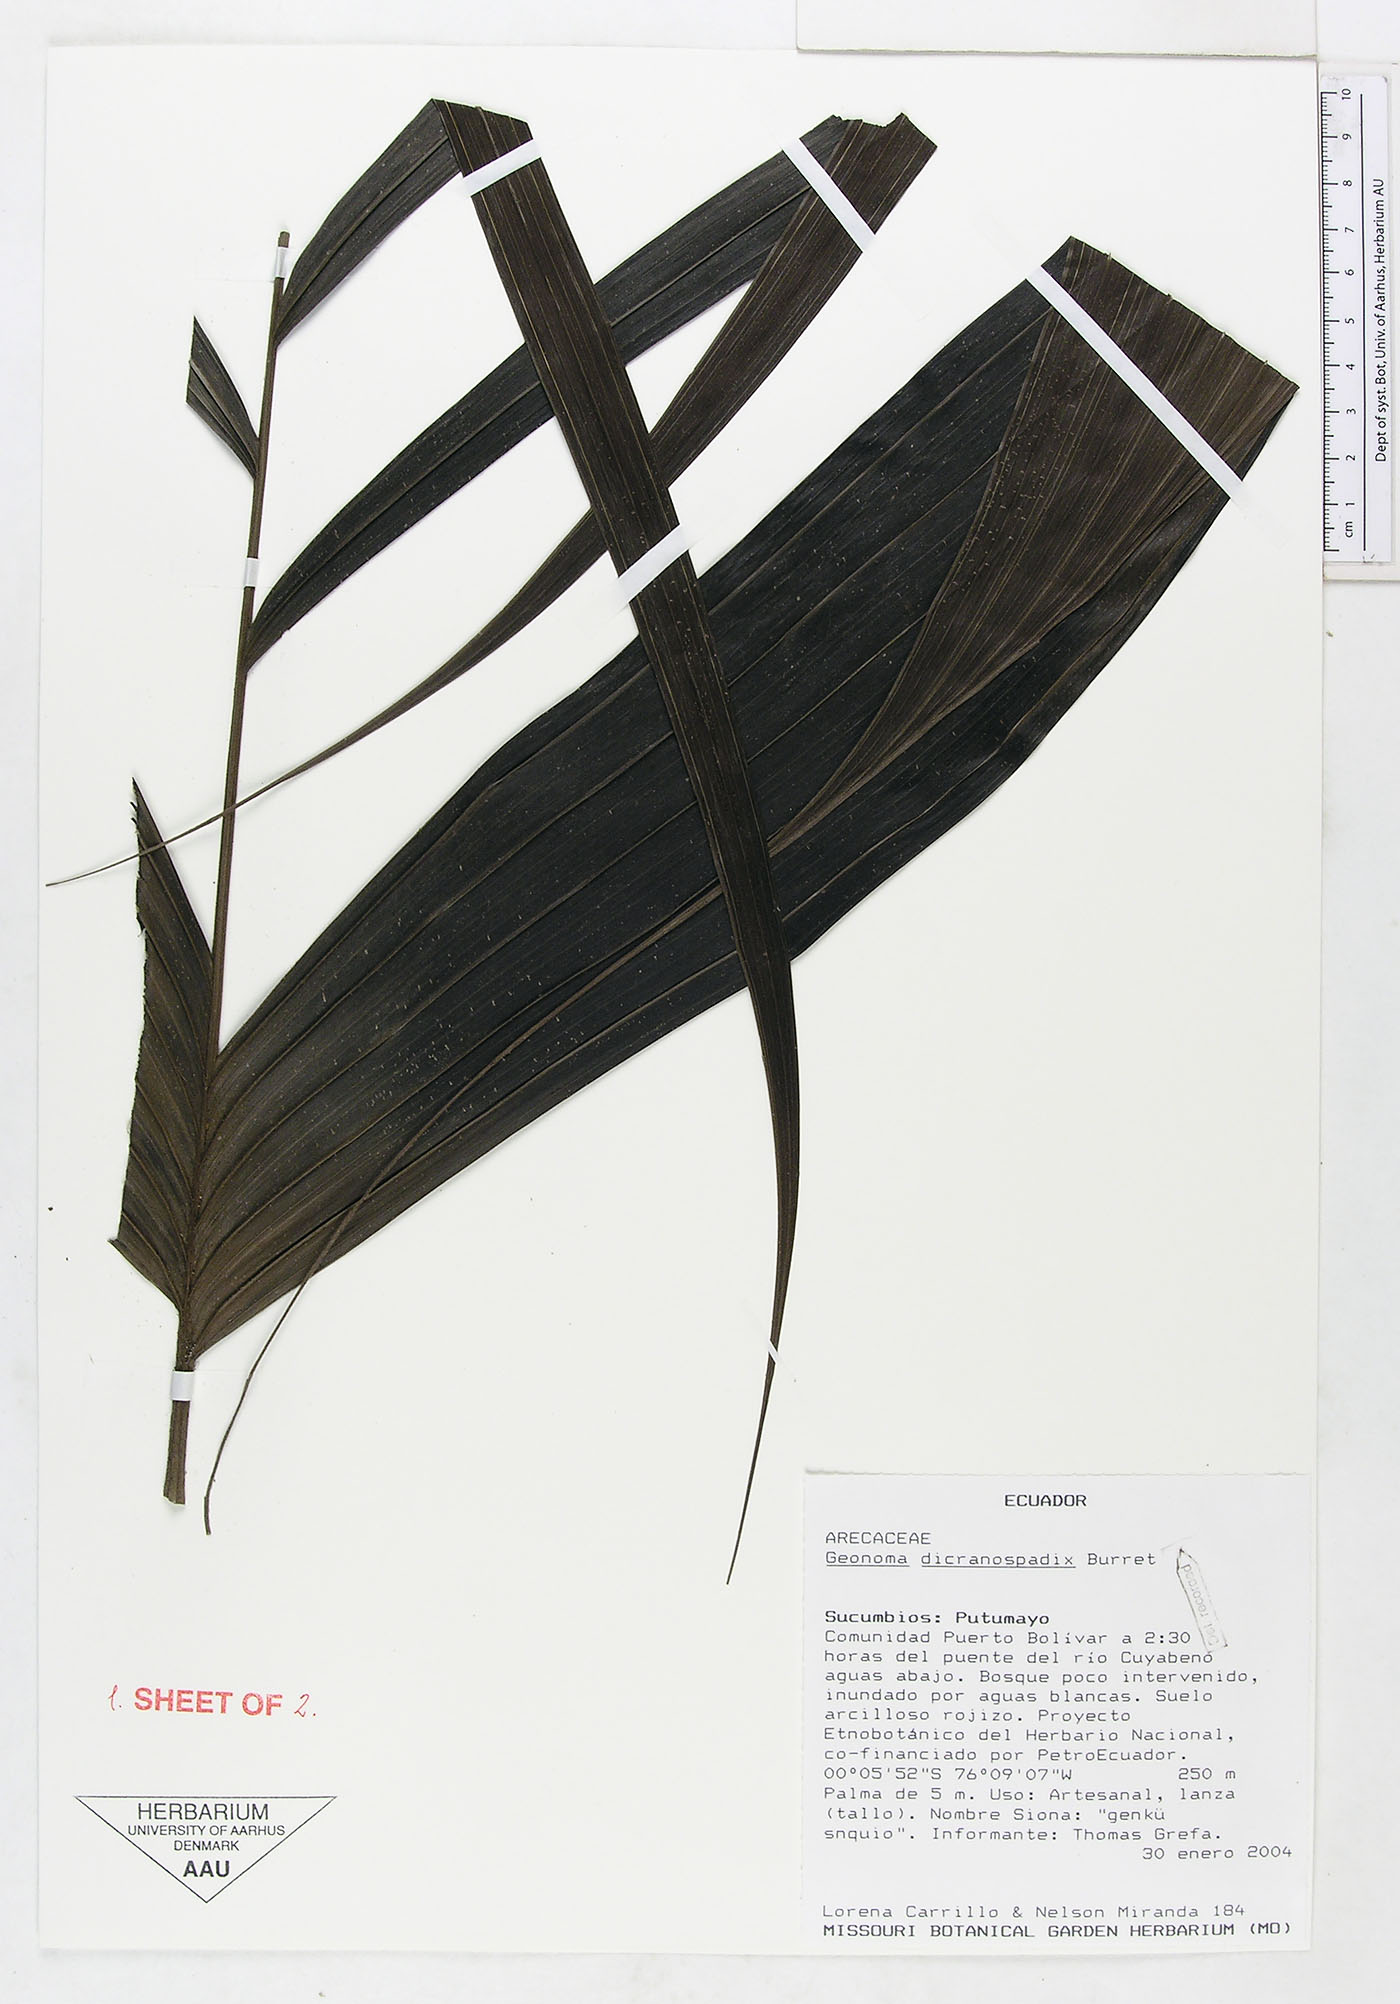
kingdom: Plantae
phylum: Tracheophyta
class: Liliopsida
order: Arecales
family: Arecaceae
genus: Geonoma
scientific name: Geonoma orbignyana
